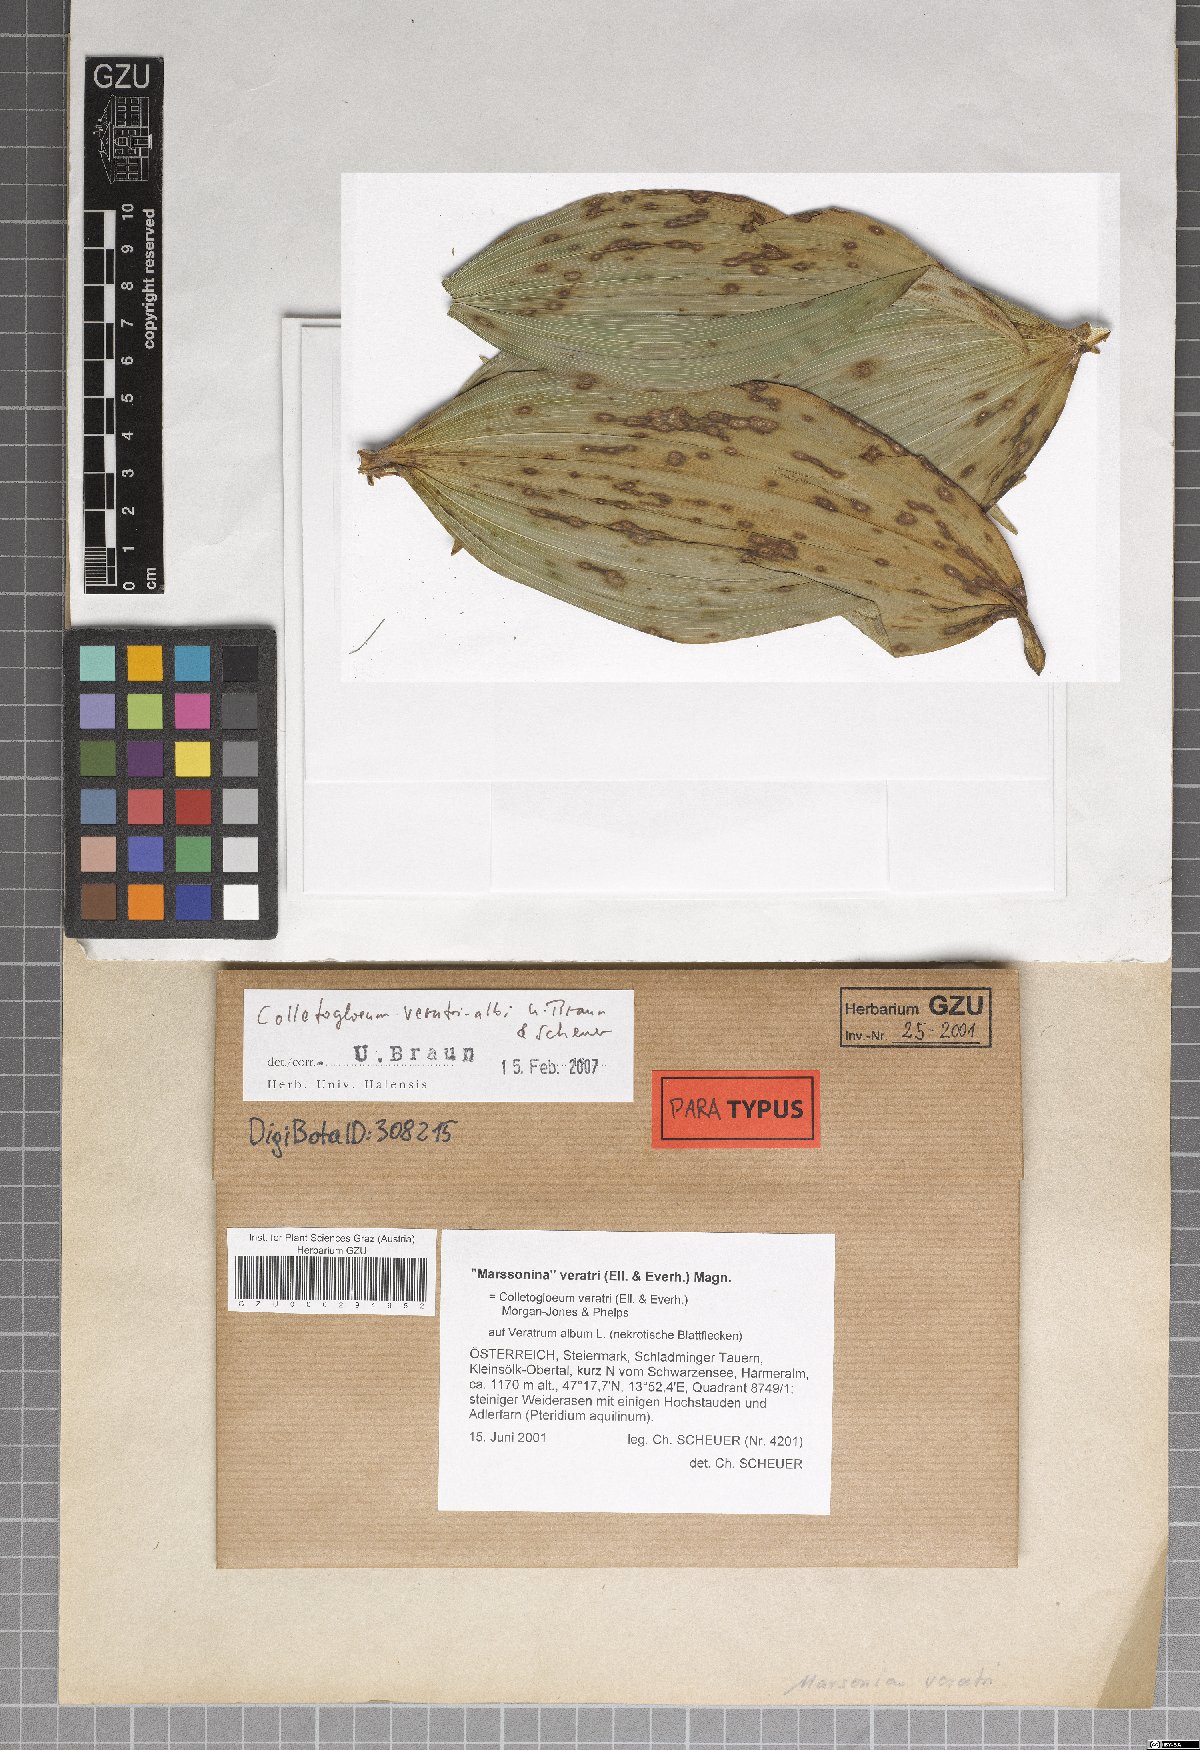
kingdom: Fungi
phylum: Ascomycota
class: Dothideomycetes
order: Mycosphaerellales
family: Mycosphaerellaceae
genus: Colletogloeum
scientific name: Colletogloeum veratri-albi
